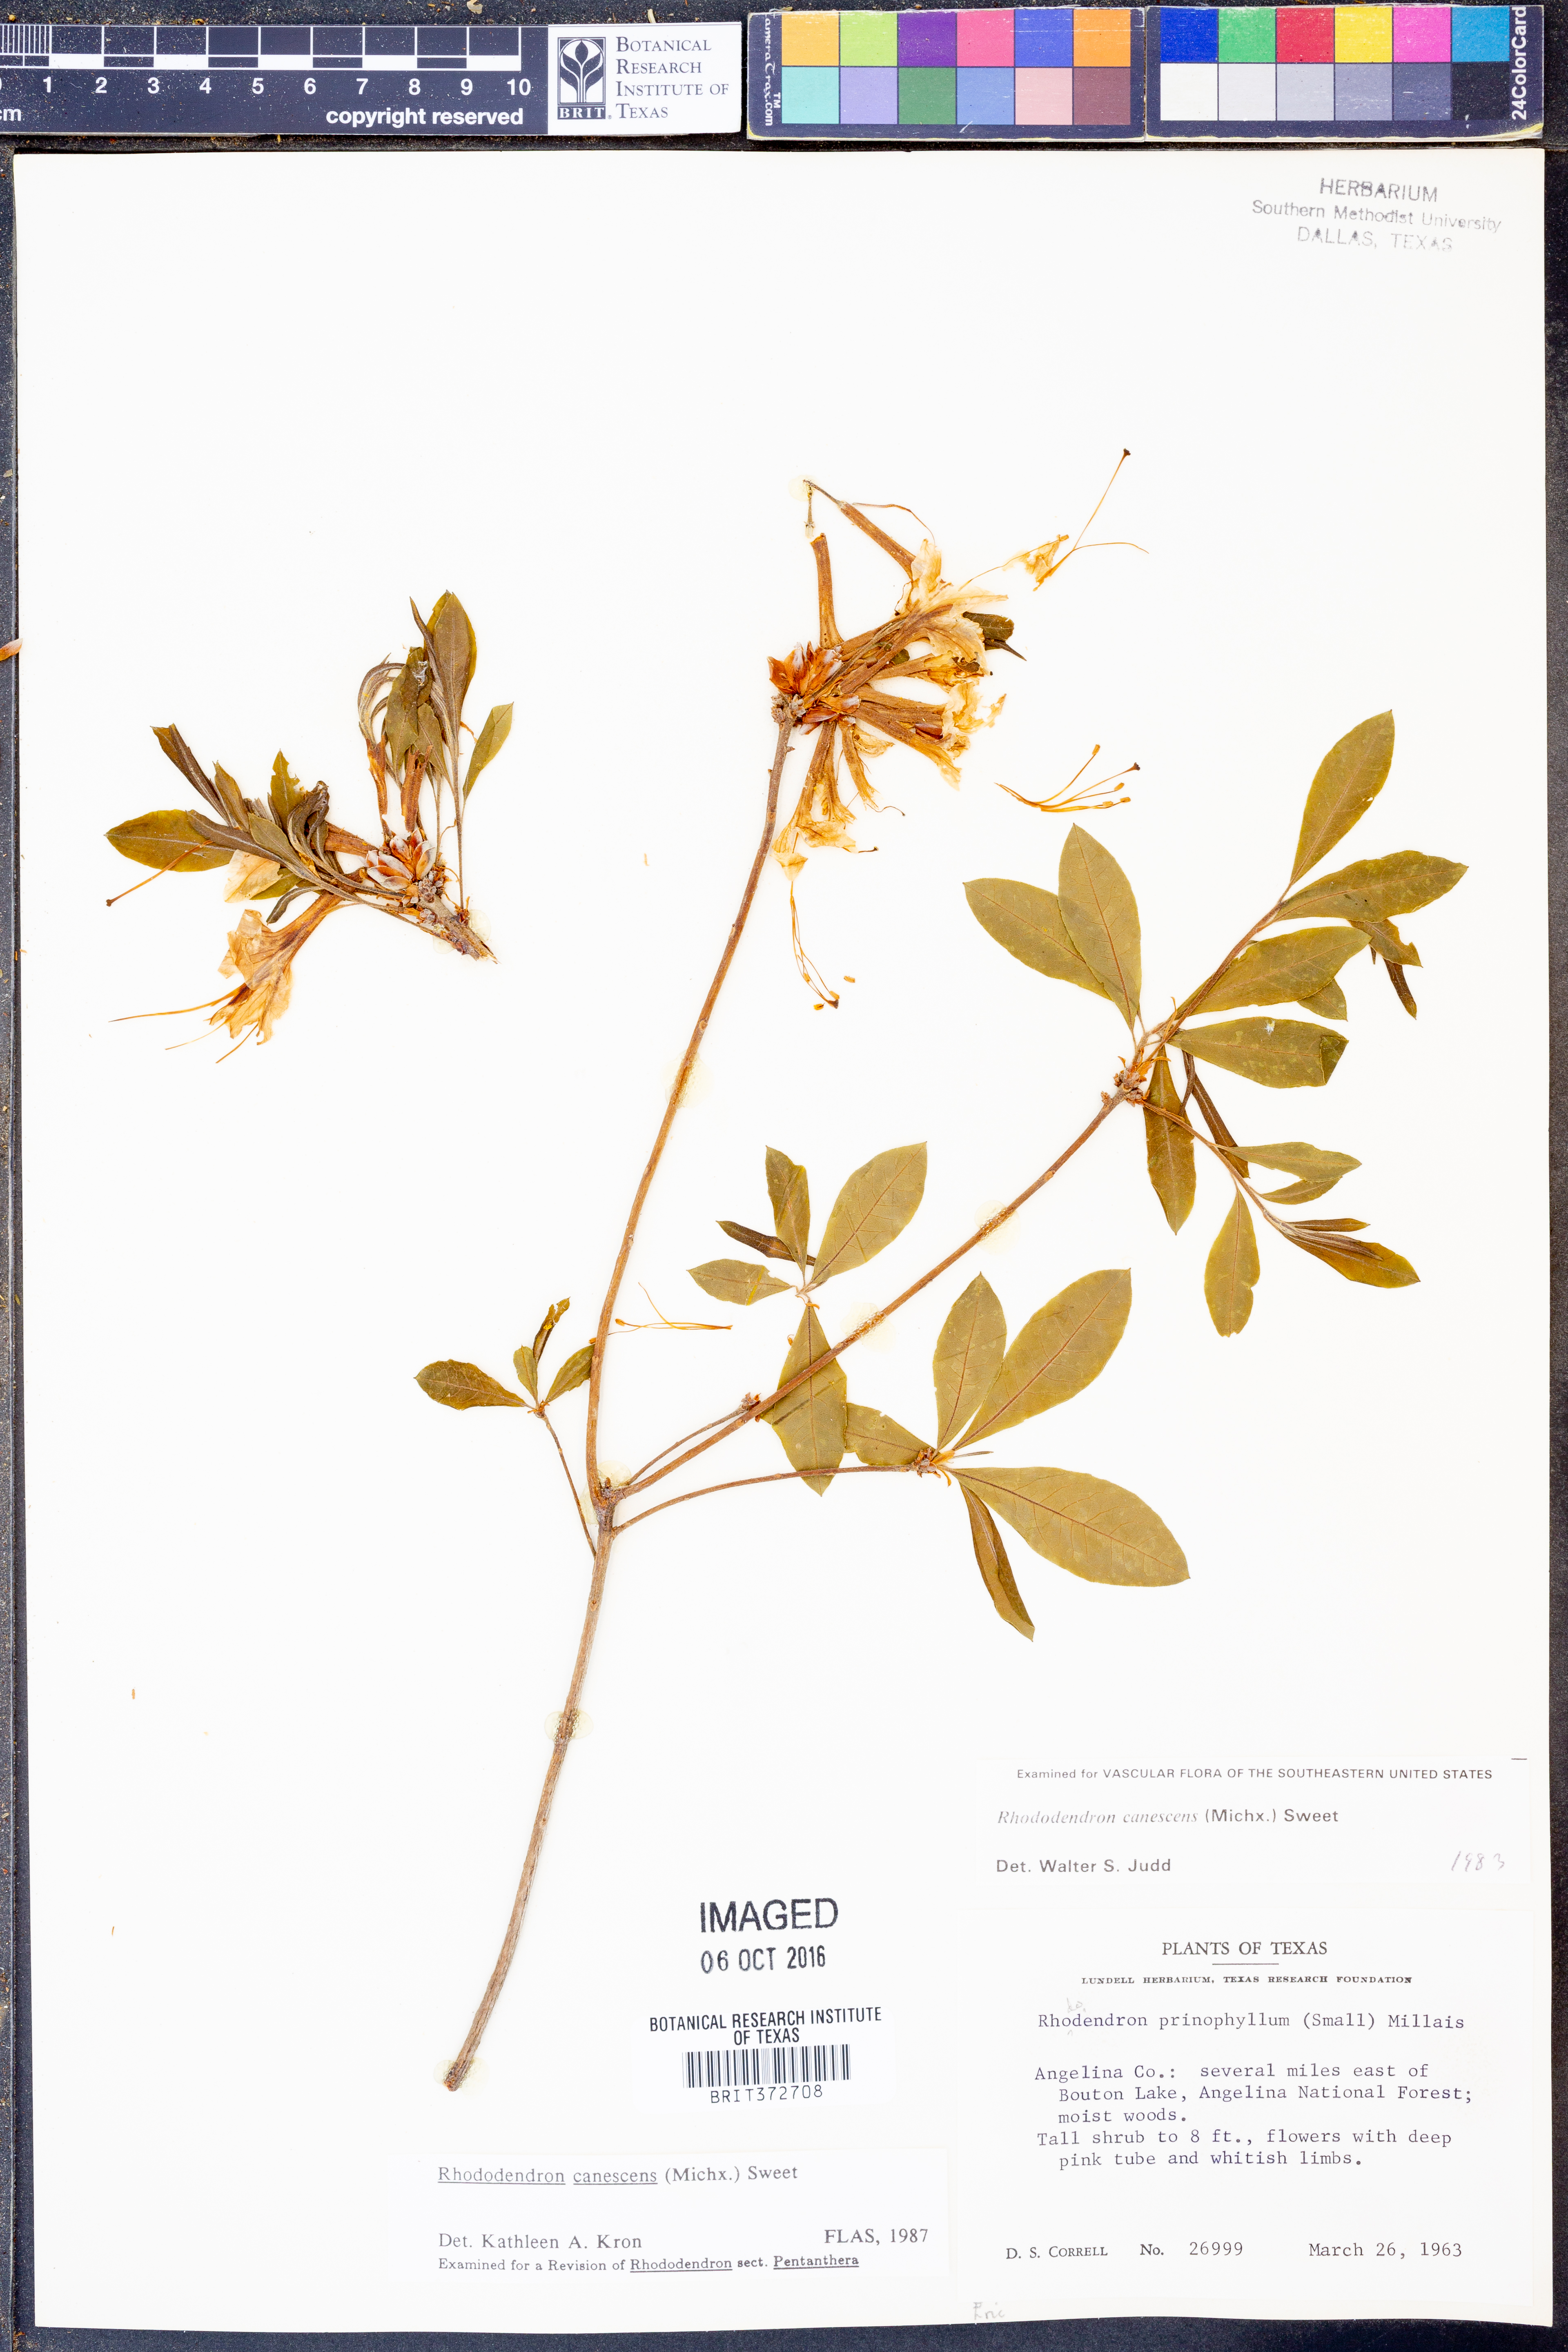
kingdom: Plantae
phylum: Tracheophyta
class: Magnoliopsida
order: Ericales
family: Ericaceae
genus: Rhododendron
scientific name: Rhododendron canescens
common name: Mountain azalea
